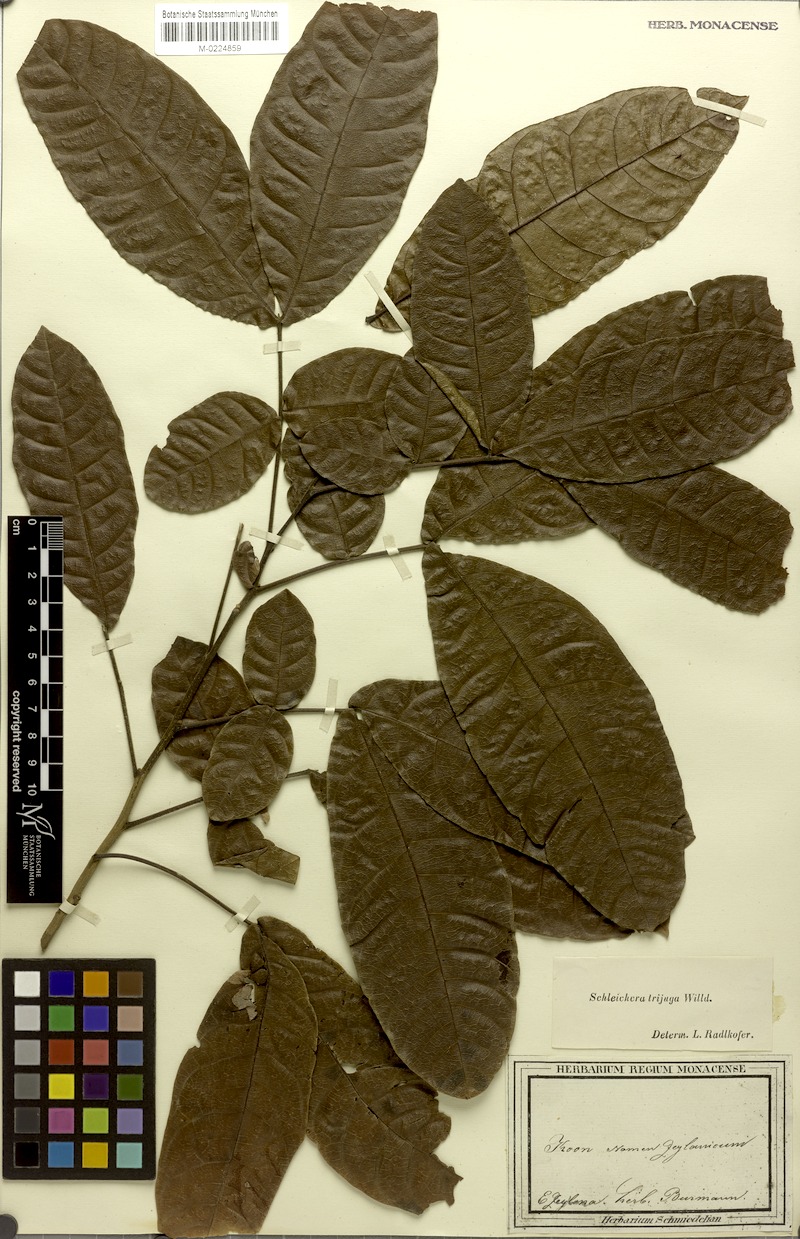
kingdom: Plantae
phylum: Tracheophyta
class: Magnoliopsida
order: Sapindales
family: Sapindaceae
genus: Schleichera
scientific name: Schleichera oleosa
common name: Malay lactree
